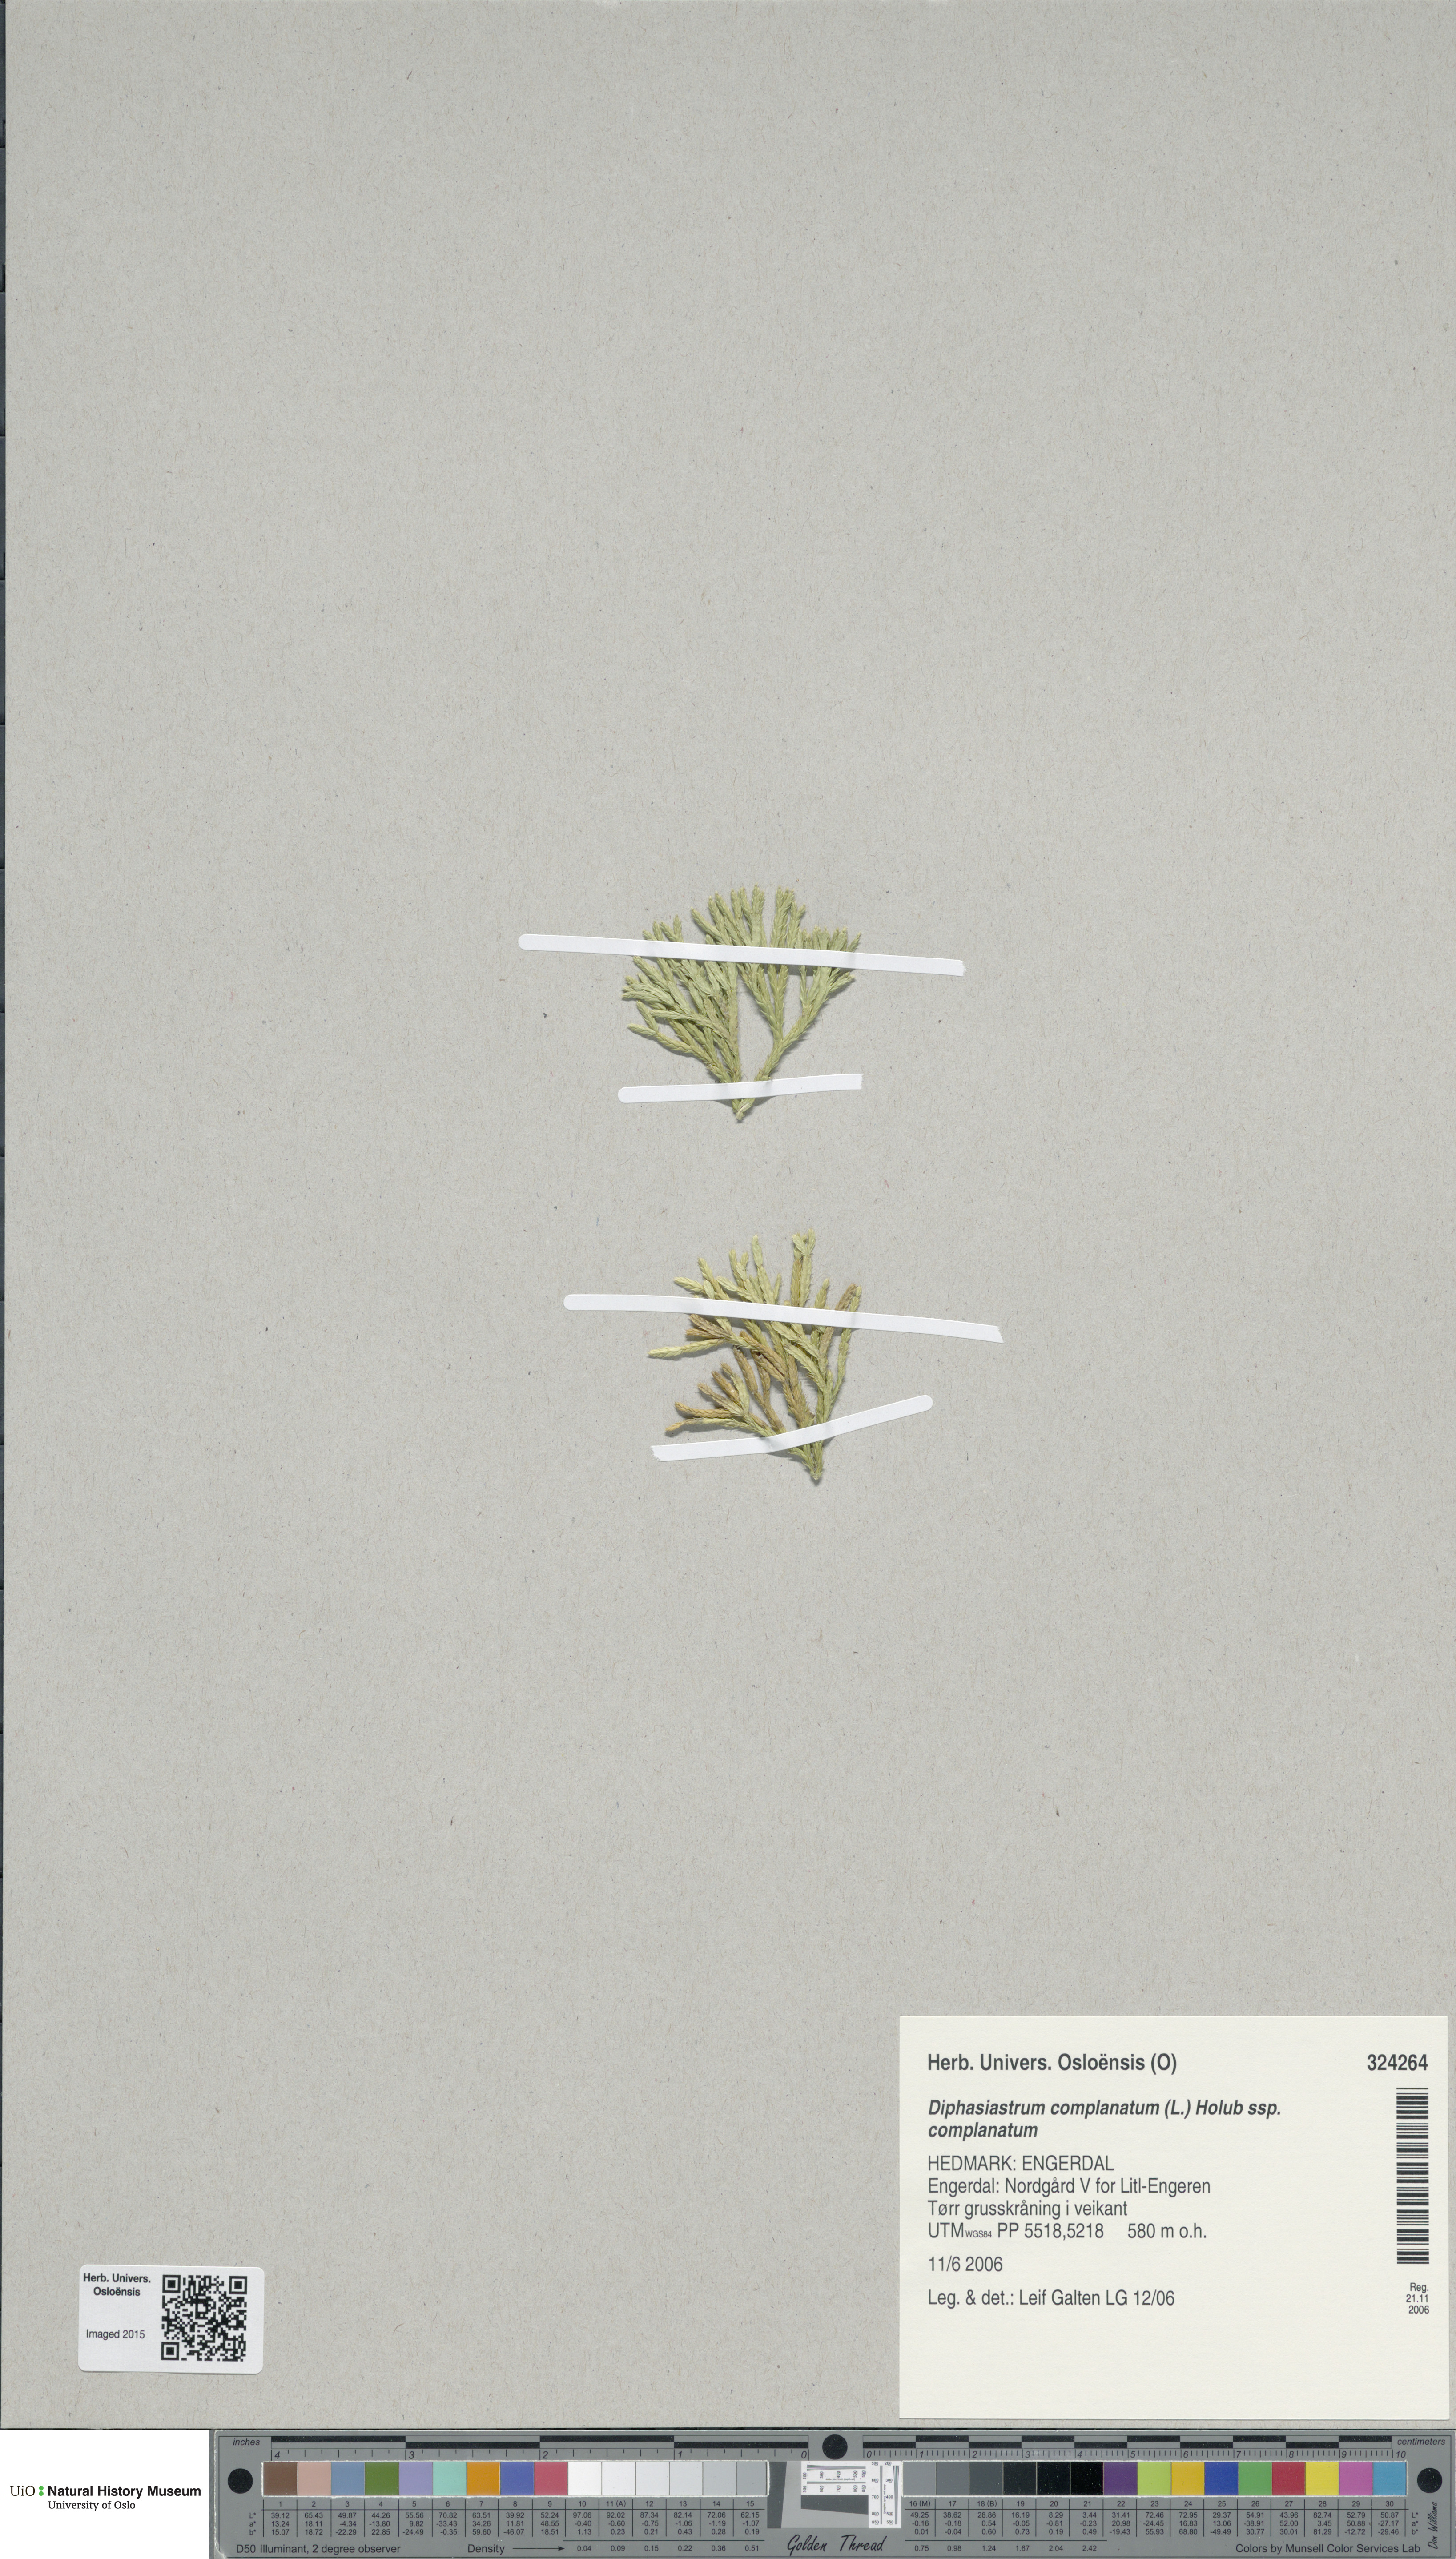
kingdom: Plantae
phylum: Tracheophyta
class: Lycopodiopsida
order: Lycopodiales
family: Lycopodiaceae
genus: Diphasiastrum
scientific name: Diphasiastrum complanatum
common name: Northern running-pine
